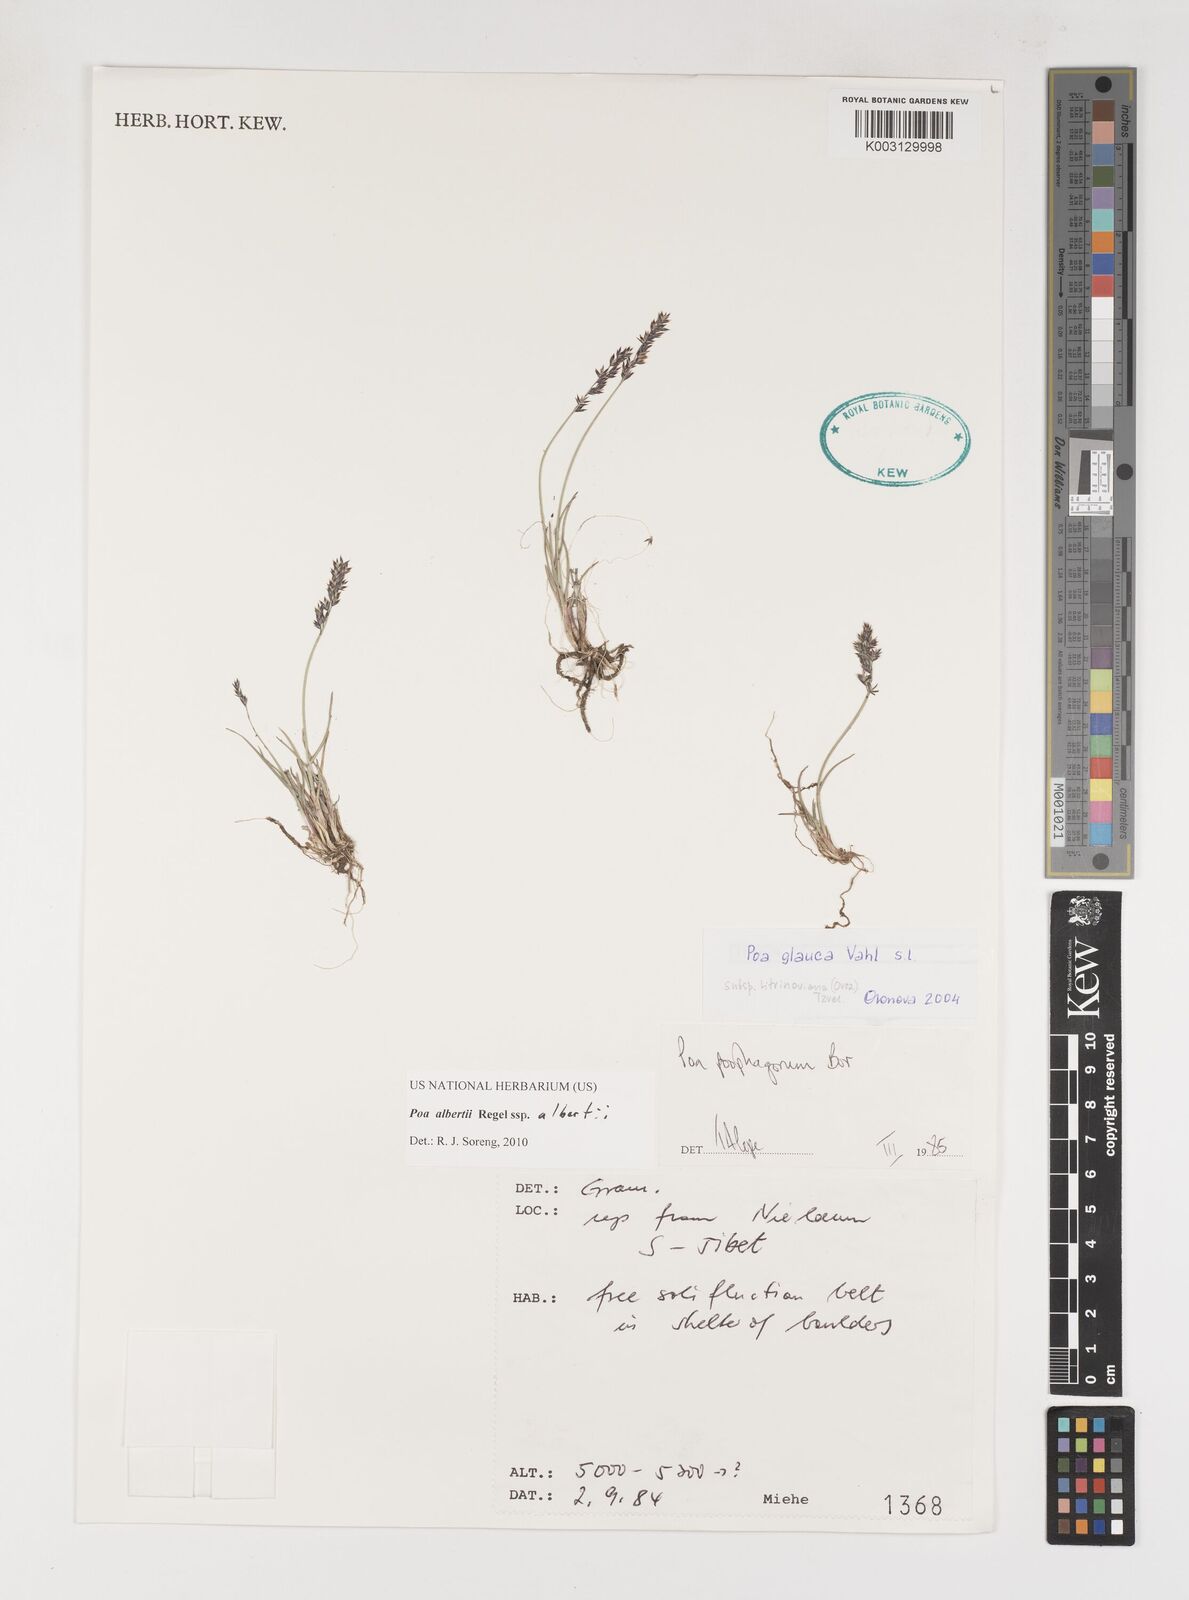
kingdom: Plantae
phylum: Tracheophyta
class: Liliopsida
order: Poales
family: Poaceae
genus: Poa
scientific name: Poa alberti
